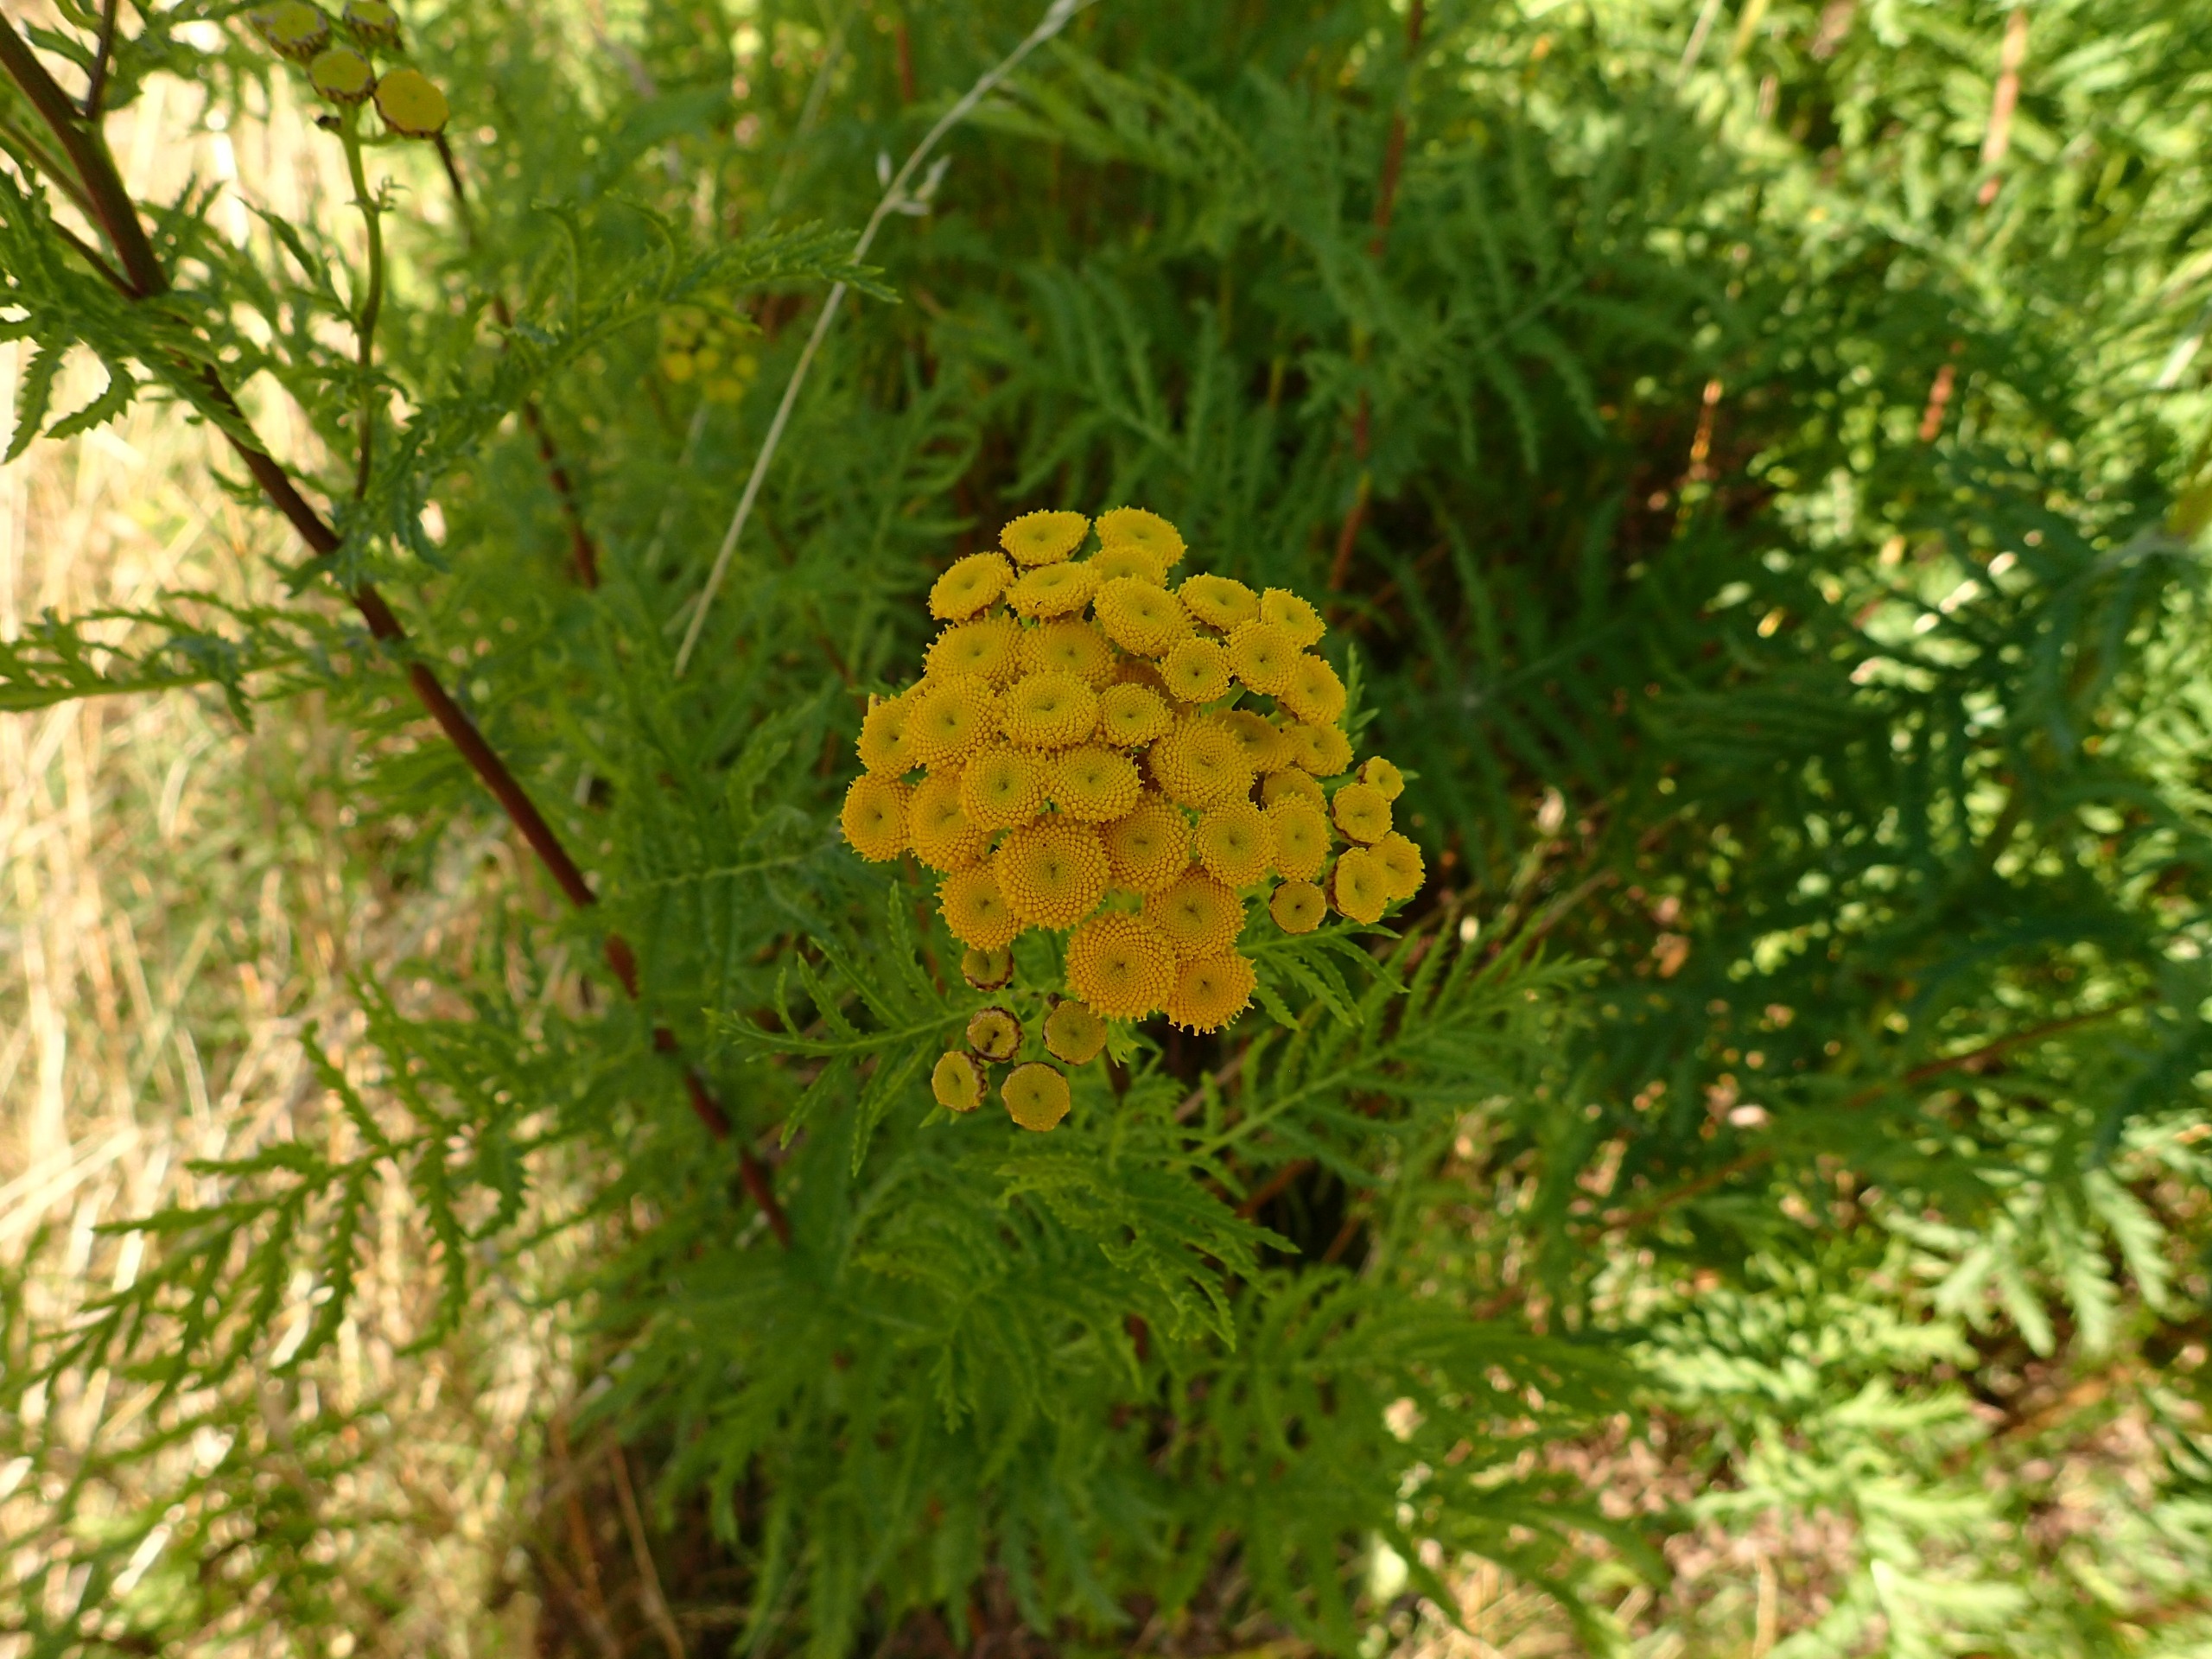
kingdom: Plantae
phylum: Tracheophyta
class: Magnoliopsida
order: Asterales
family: Asteraceae
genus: Tanacetum
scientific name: Tanacetum vulgare
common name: Rejnfan
